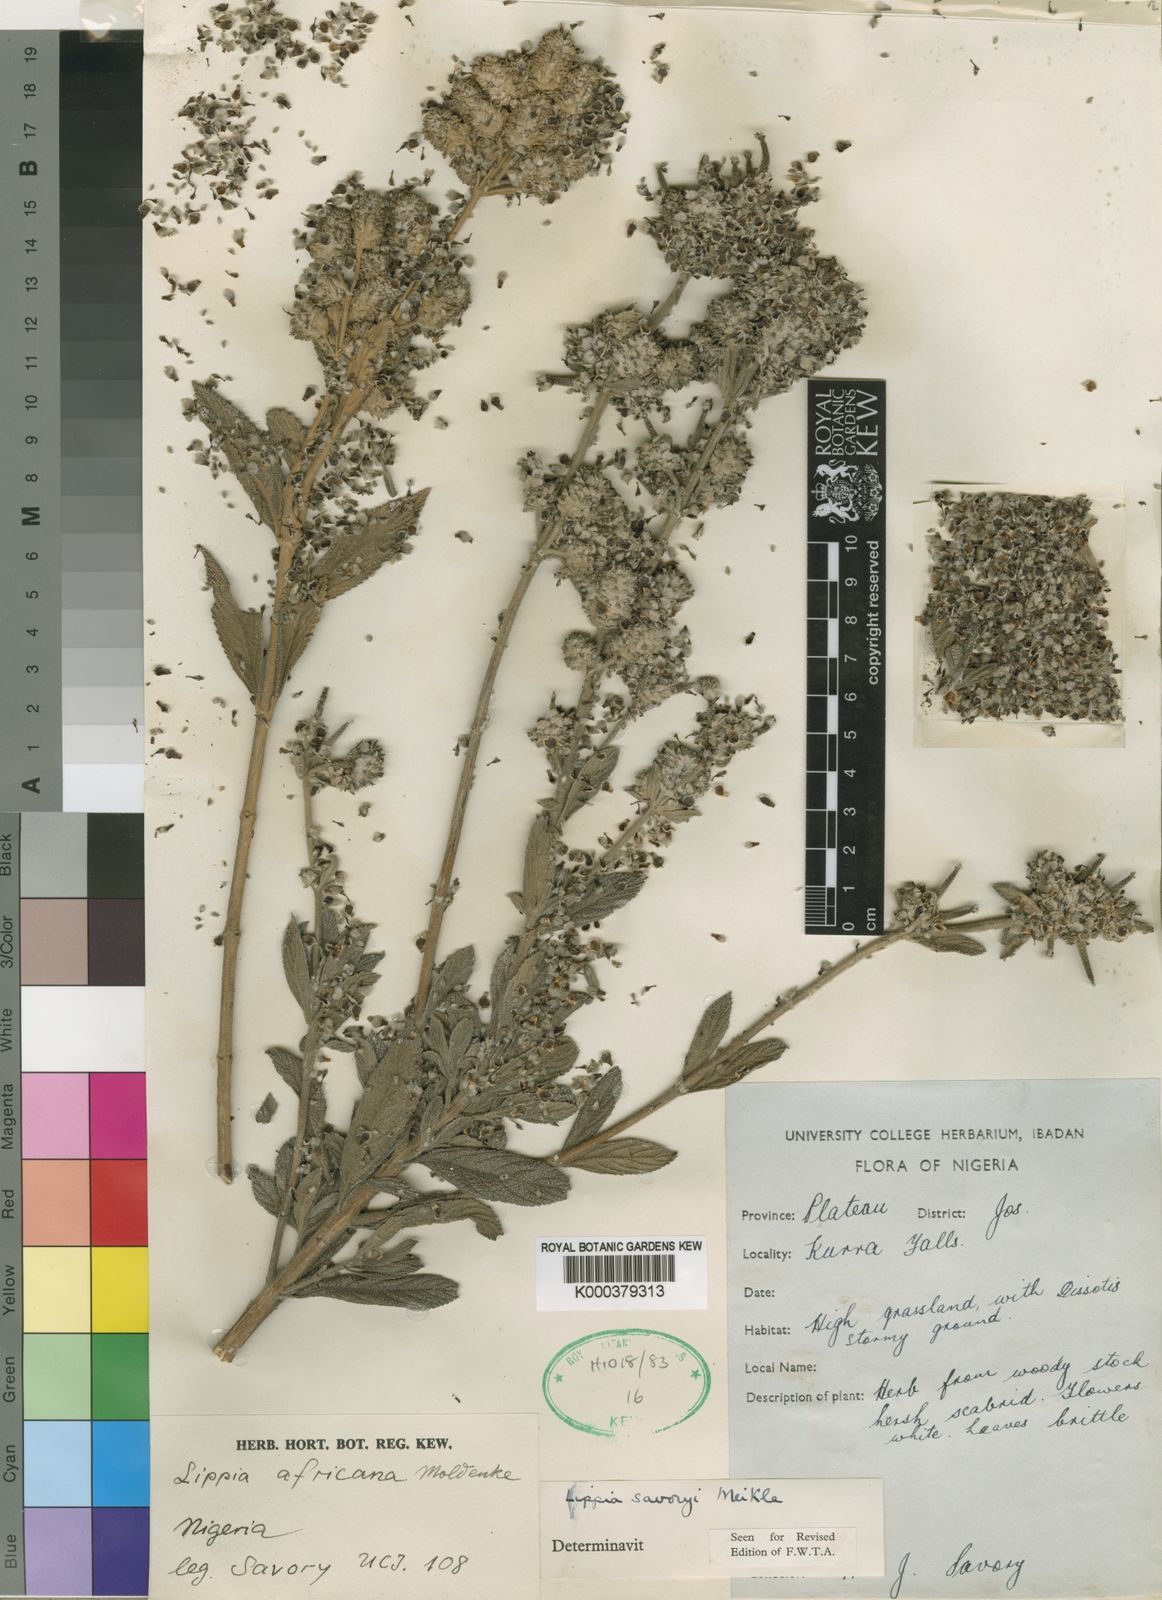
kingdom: Plantae
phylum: Tracheophyta
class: Magnoliopsida
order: Lamiales
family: Verbenaceae
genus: Lippia
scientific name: Lippia savoryi
